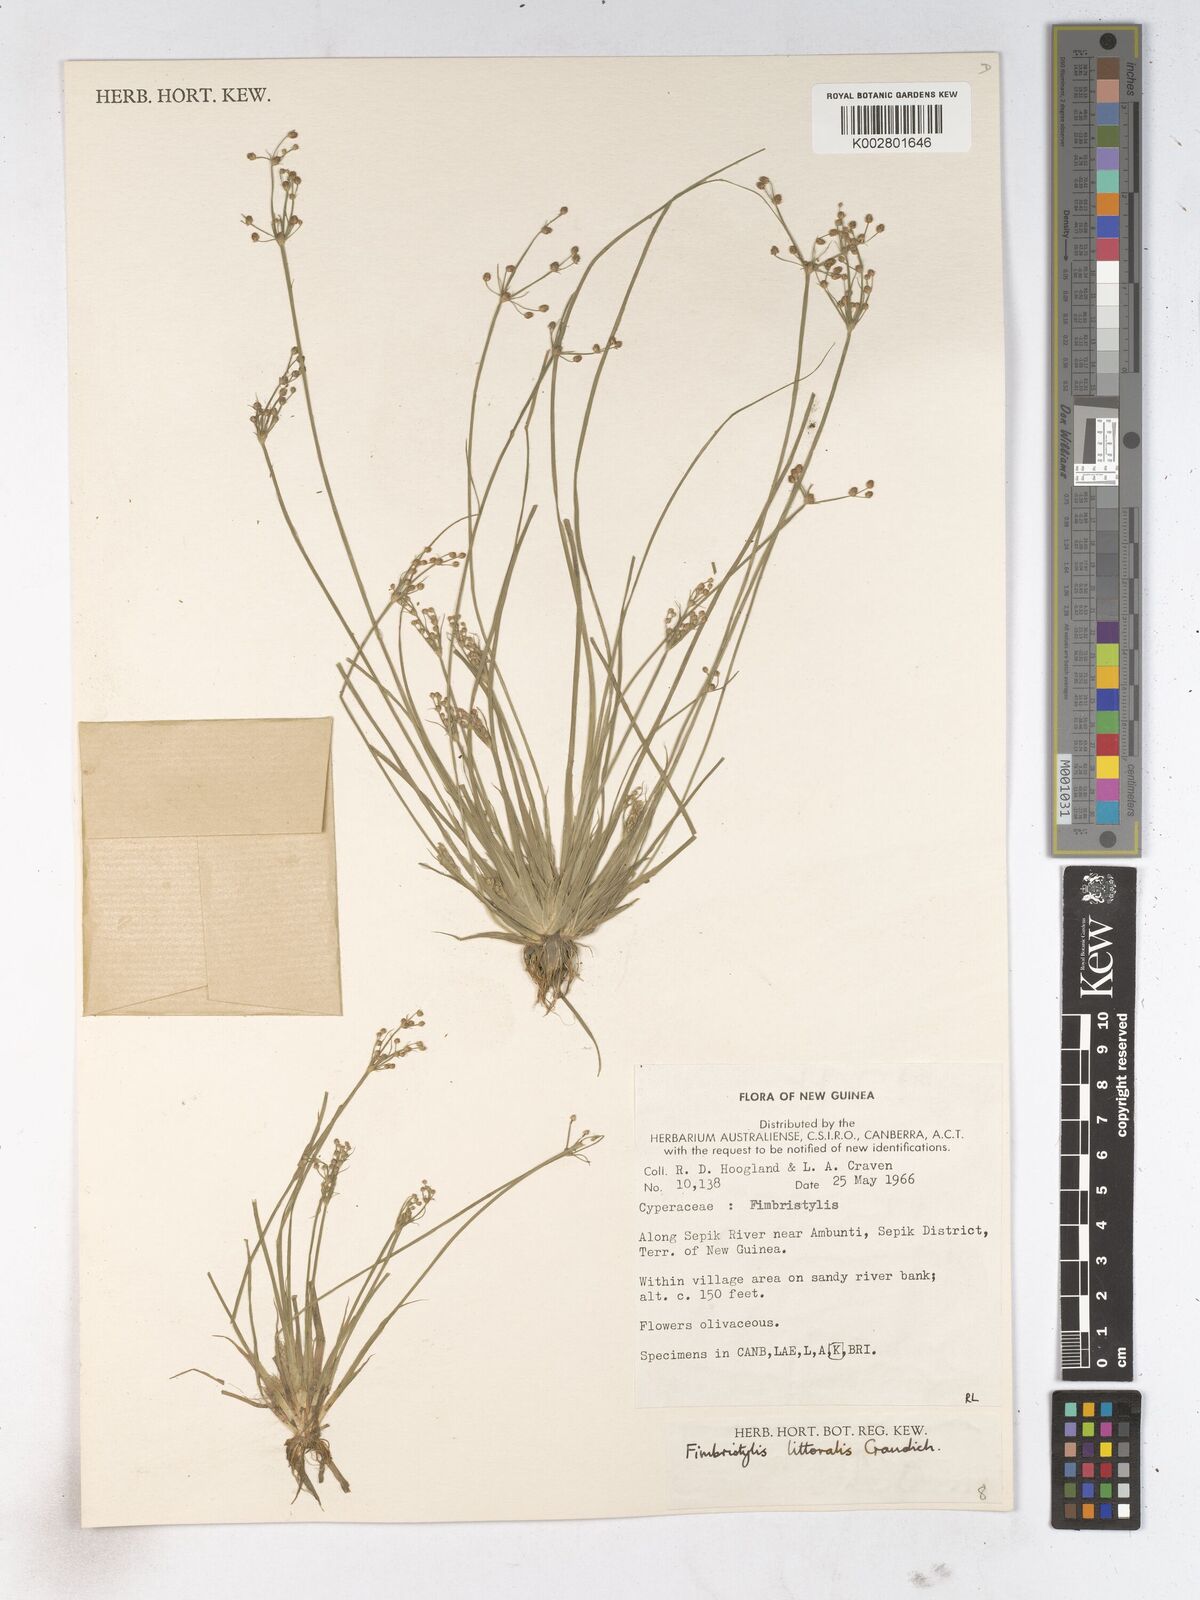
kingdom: Plantae
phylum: Tracheophyta
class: Liliopsida
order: Poales
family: Cyperaceae
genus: Fimbristylis
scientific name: Fimbristylis littoralis
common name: Fimbry
